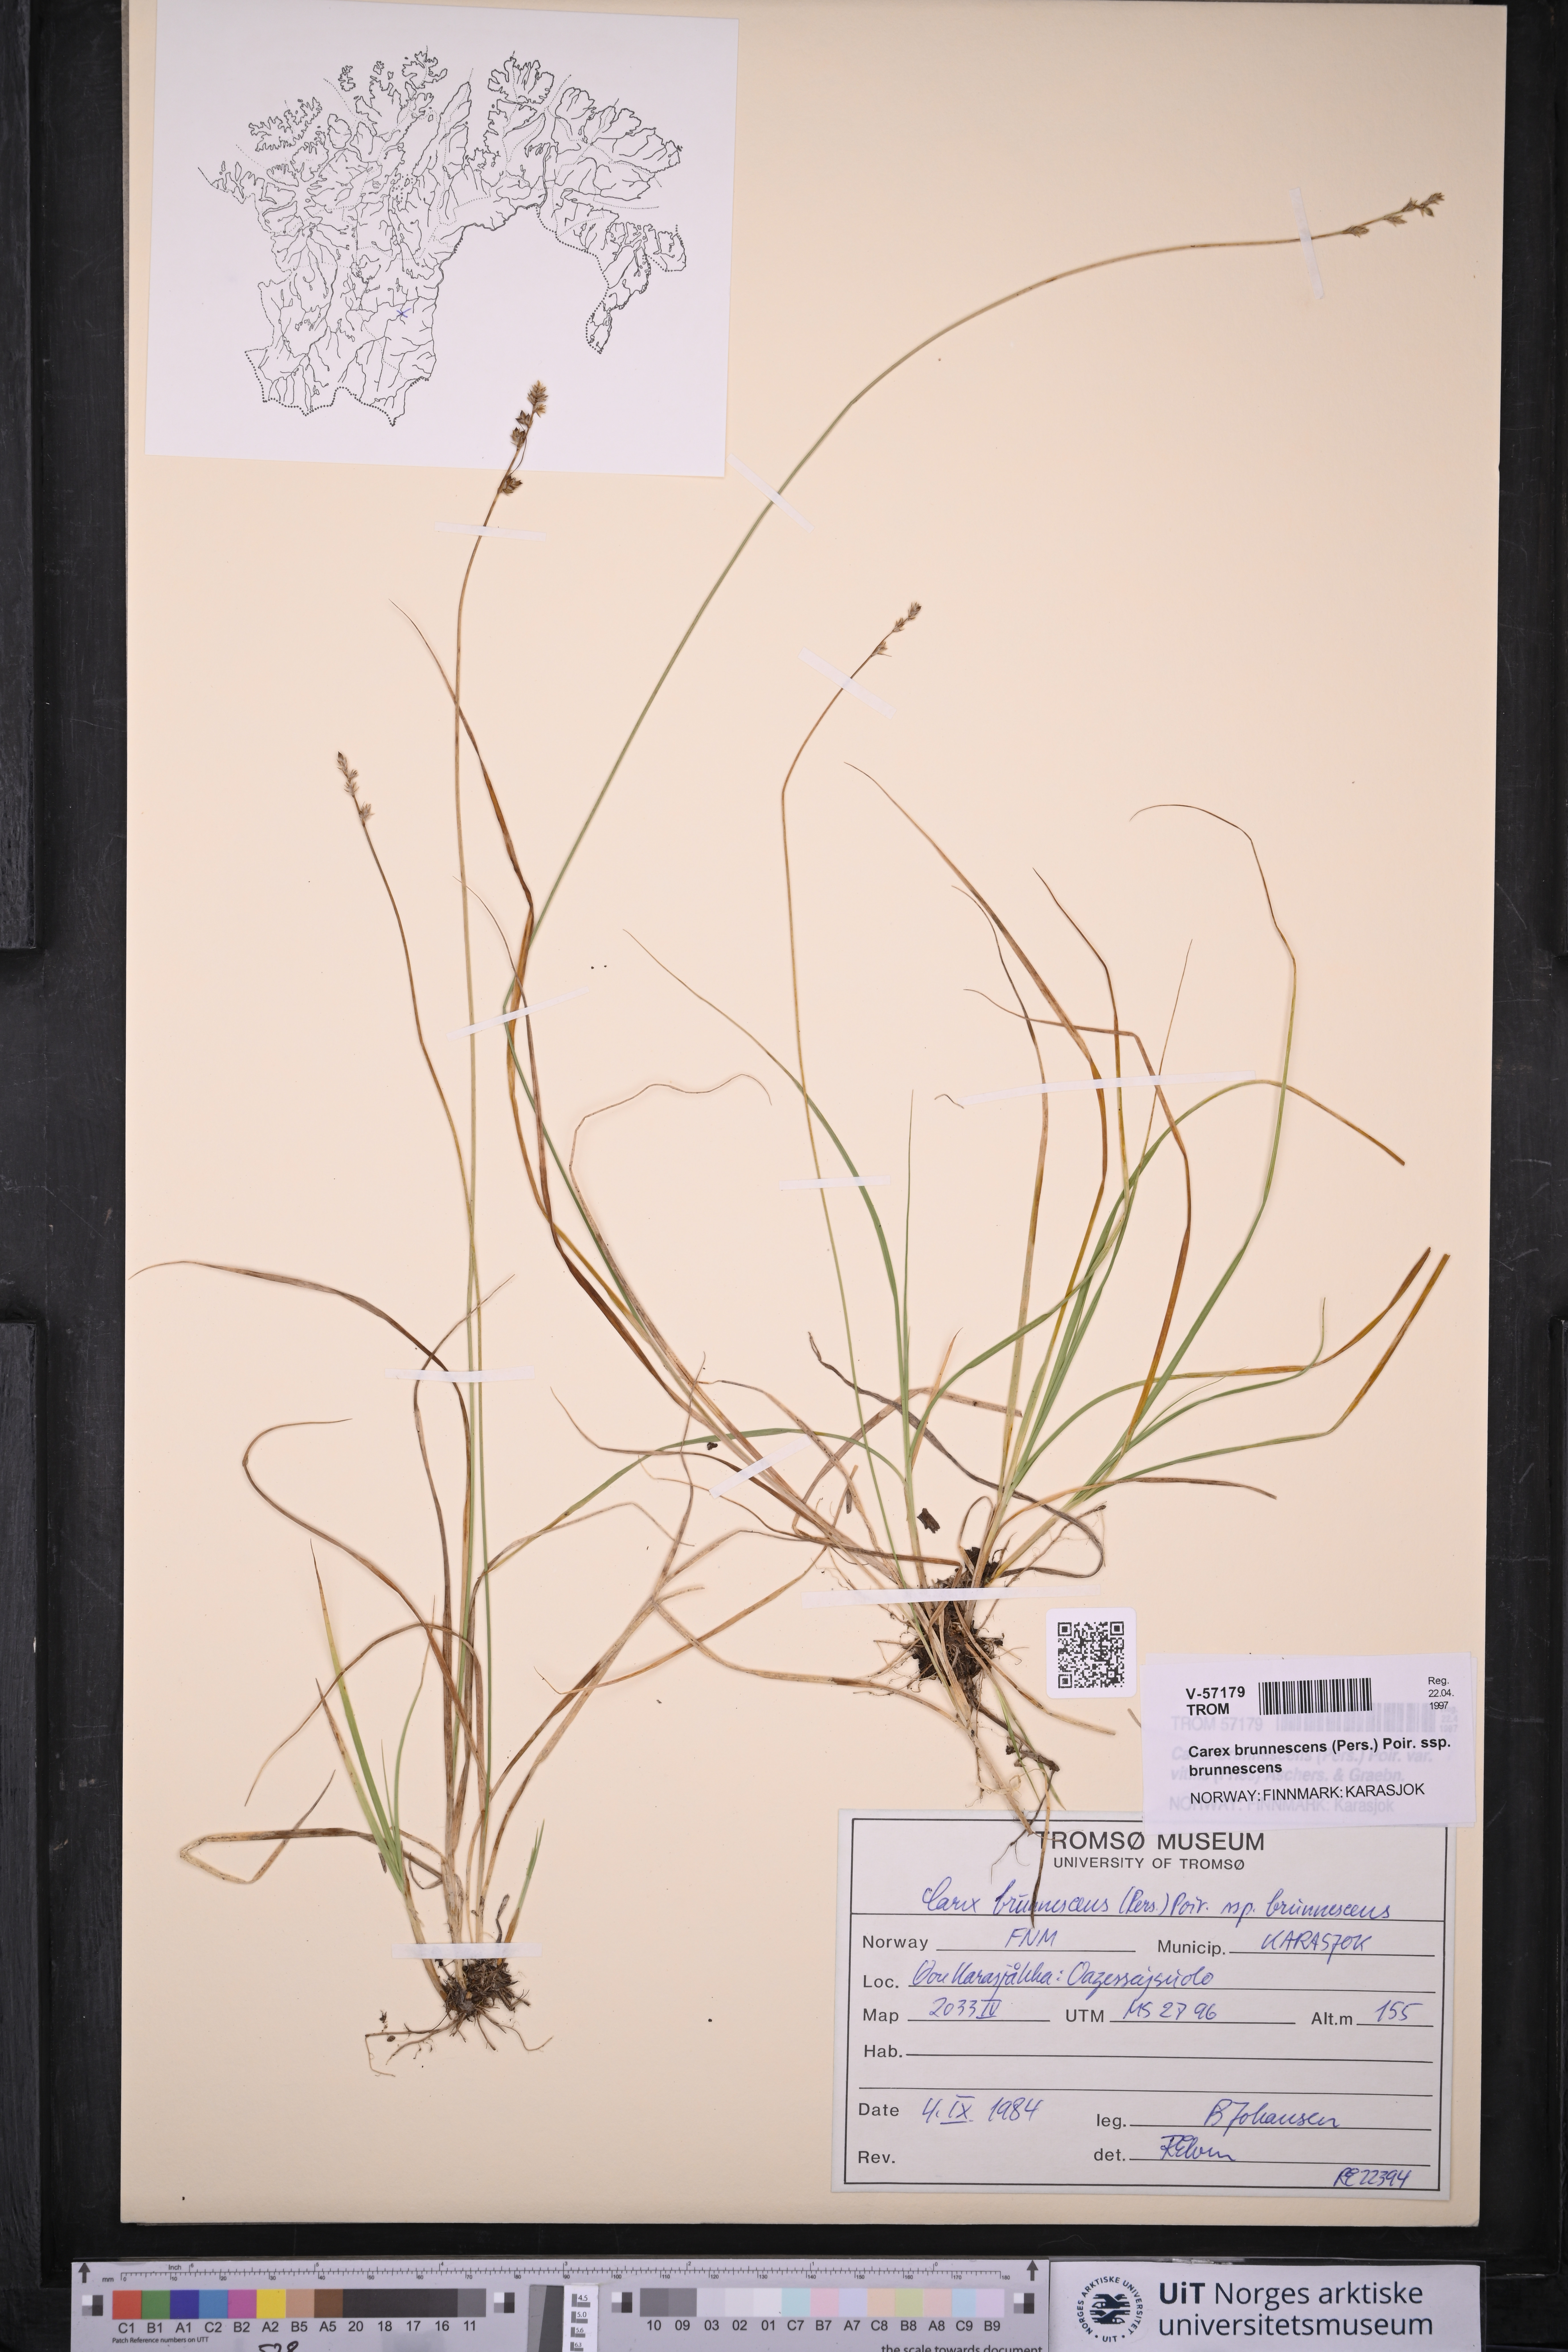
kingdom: Plantae
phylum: Tracheophyta
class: Liliopsida
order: Poales
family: Cyperaceae
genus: Carex
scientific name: Carex brunnescens
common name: Brown sedge
